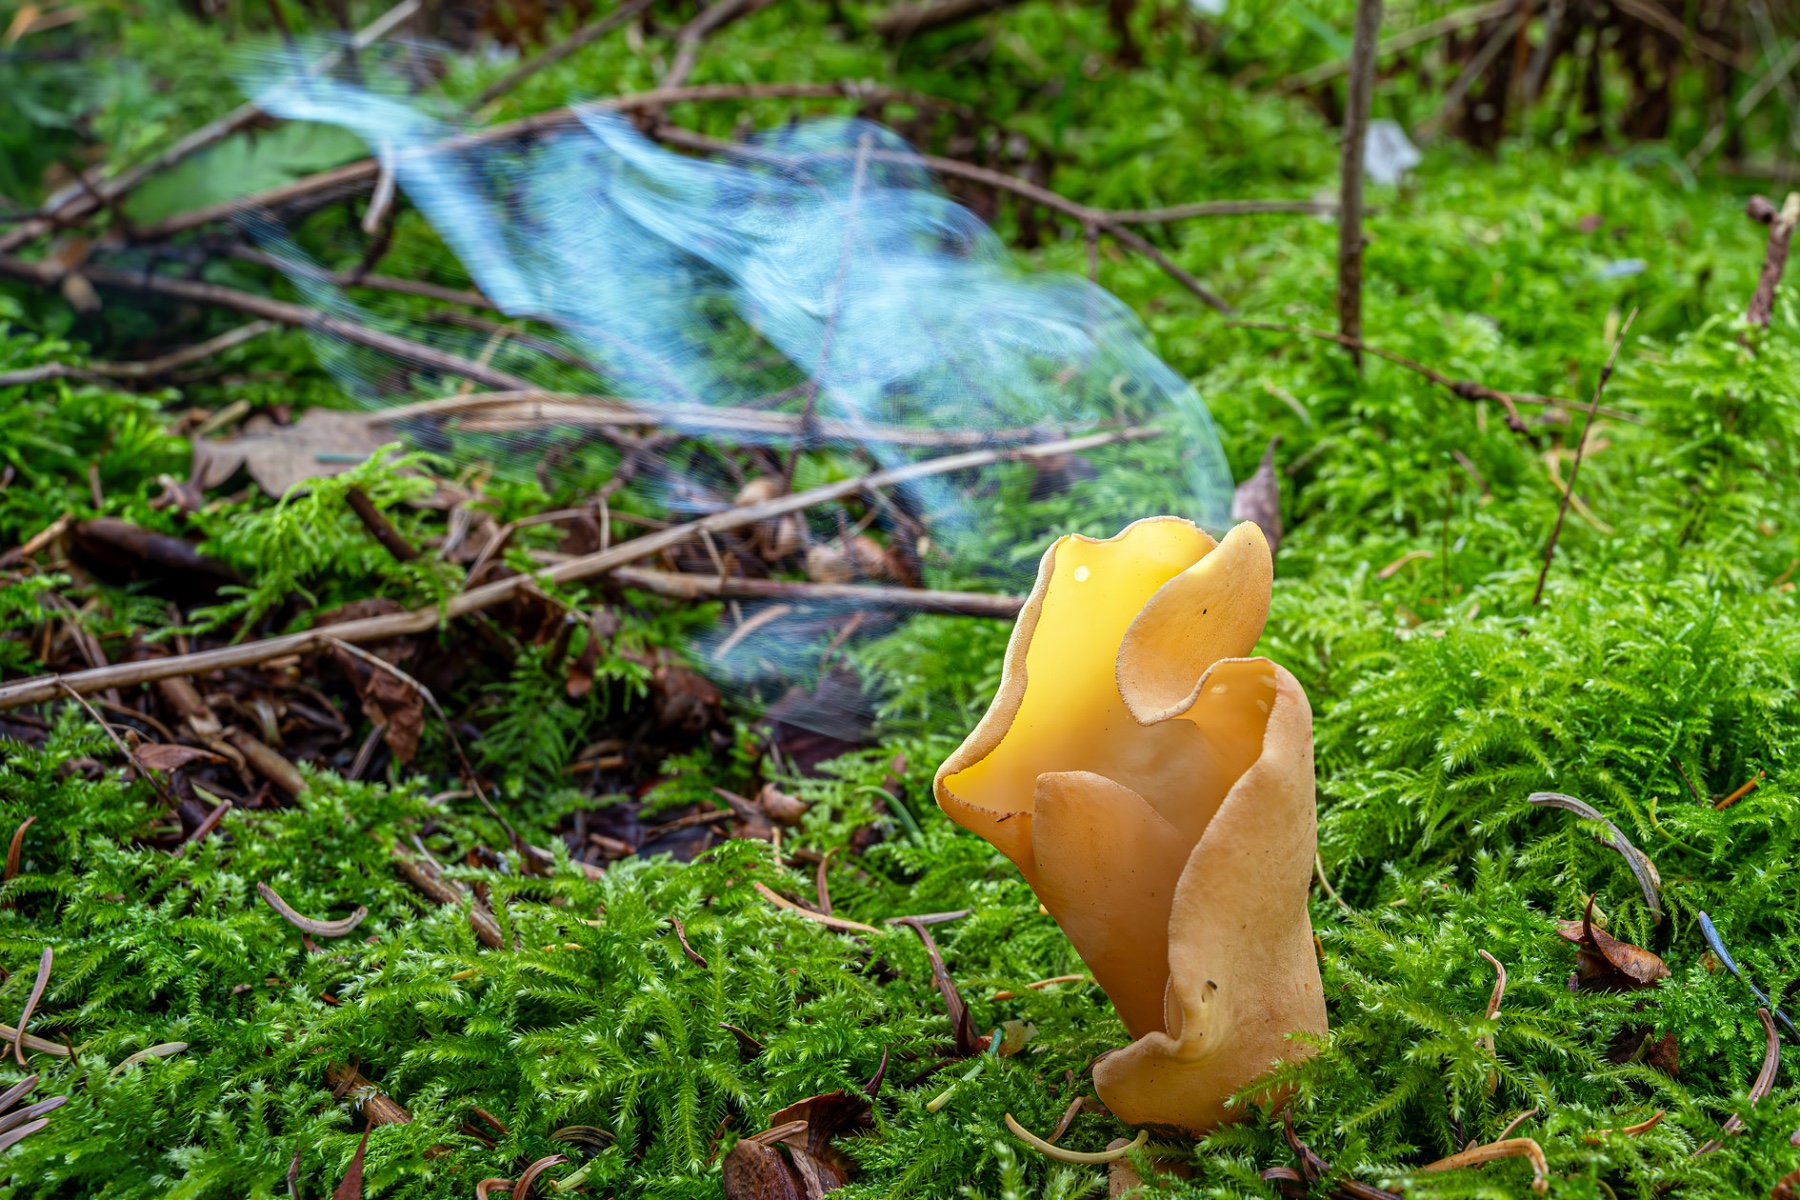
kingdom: Fungi
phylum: Ascomycota
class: Pezizomycetes
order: Pezizales
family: Otideaceae
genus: Otidea
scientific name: Otidea onotica
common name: æsel-ørebæger
